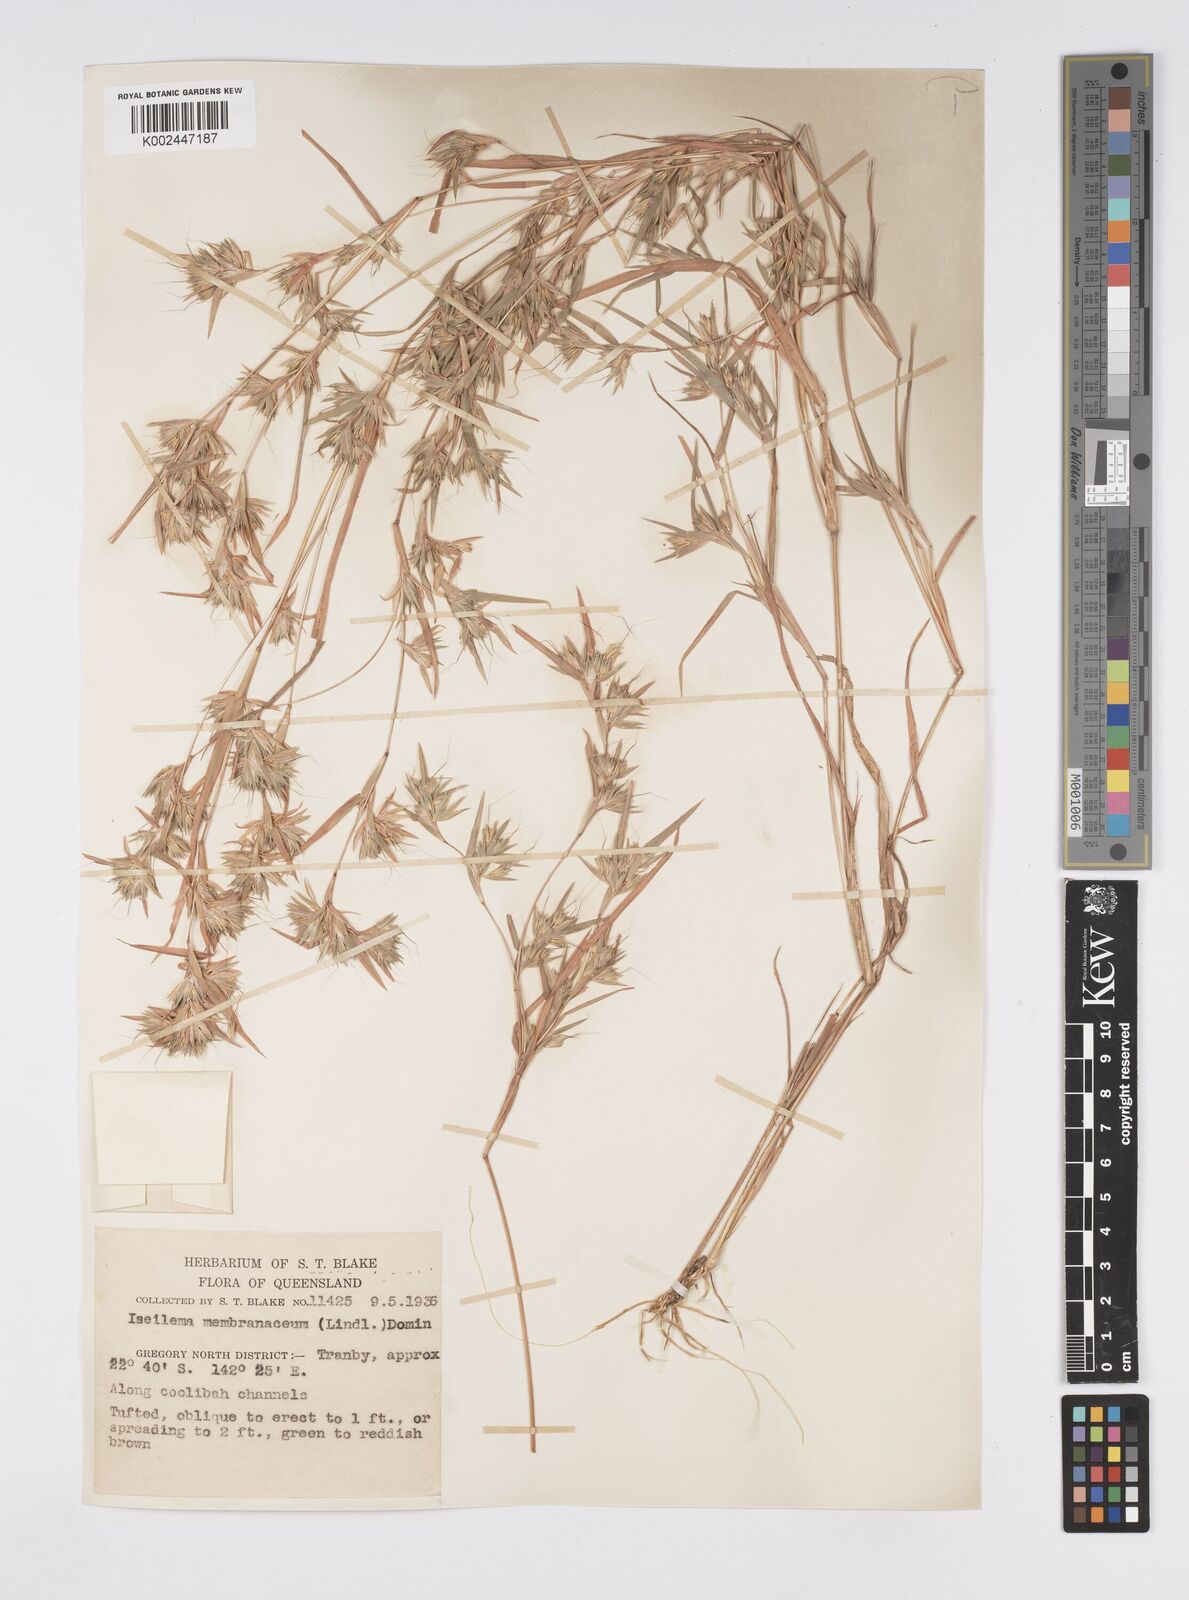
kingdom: Plantae
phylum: Tracheophyta
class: Liliopsida
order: Poales
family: Poaceae
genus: Iseilema
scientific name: Iseilema membranaceum
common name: Small flinders grass
